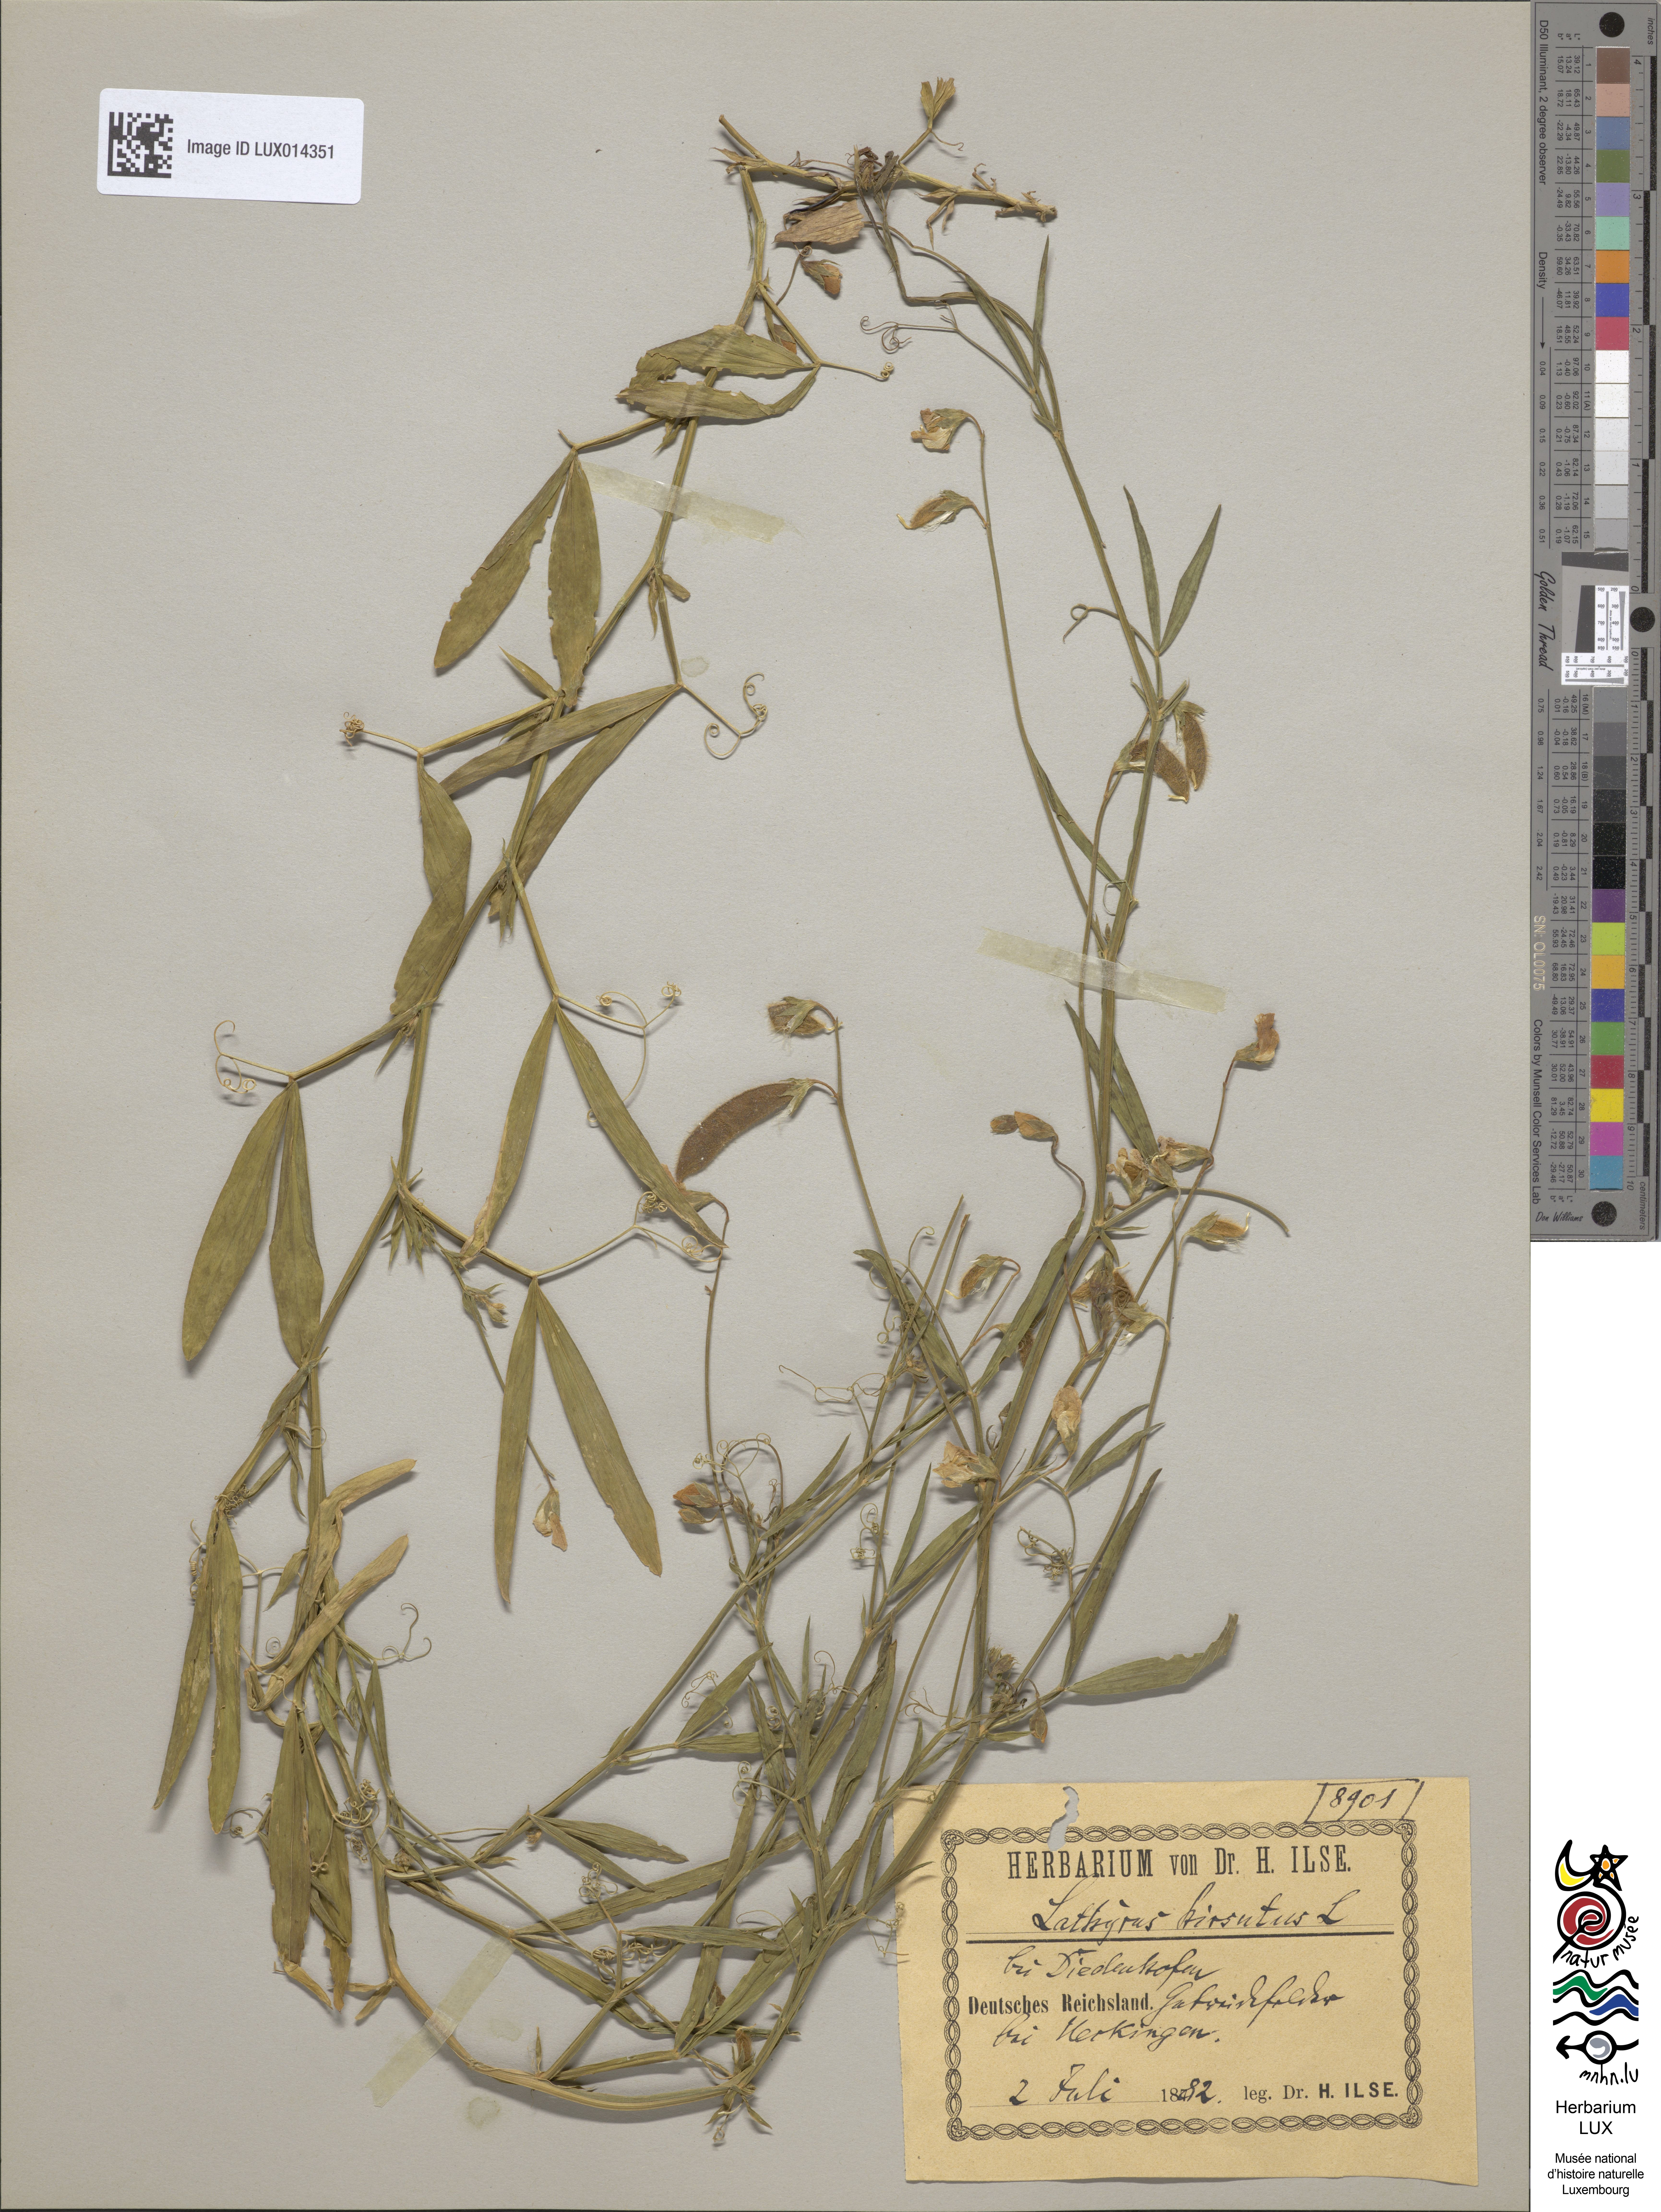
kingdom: Plantae
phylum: Tracheophyta
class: Magnoliopsida
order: Fabales
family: Fabaceae
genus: Lathyrus
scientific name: Lathyrus hirsutus
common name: Hairy vetchling
